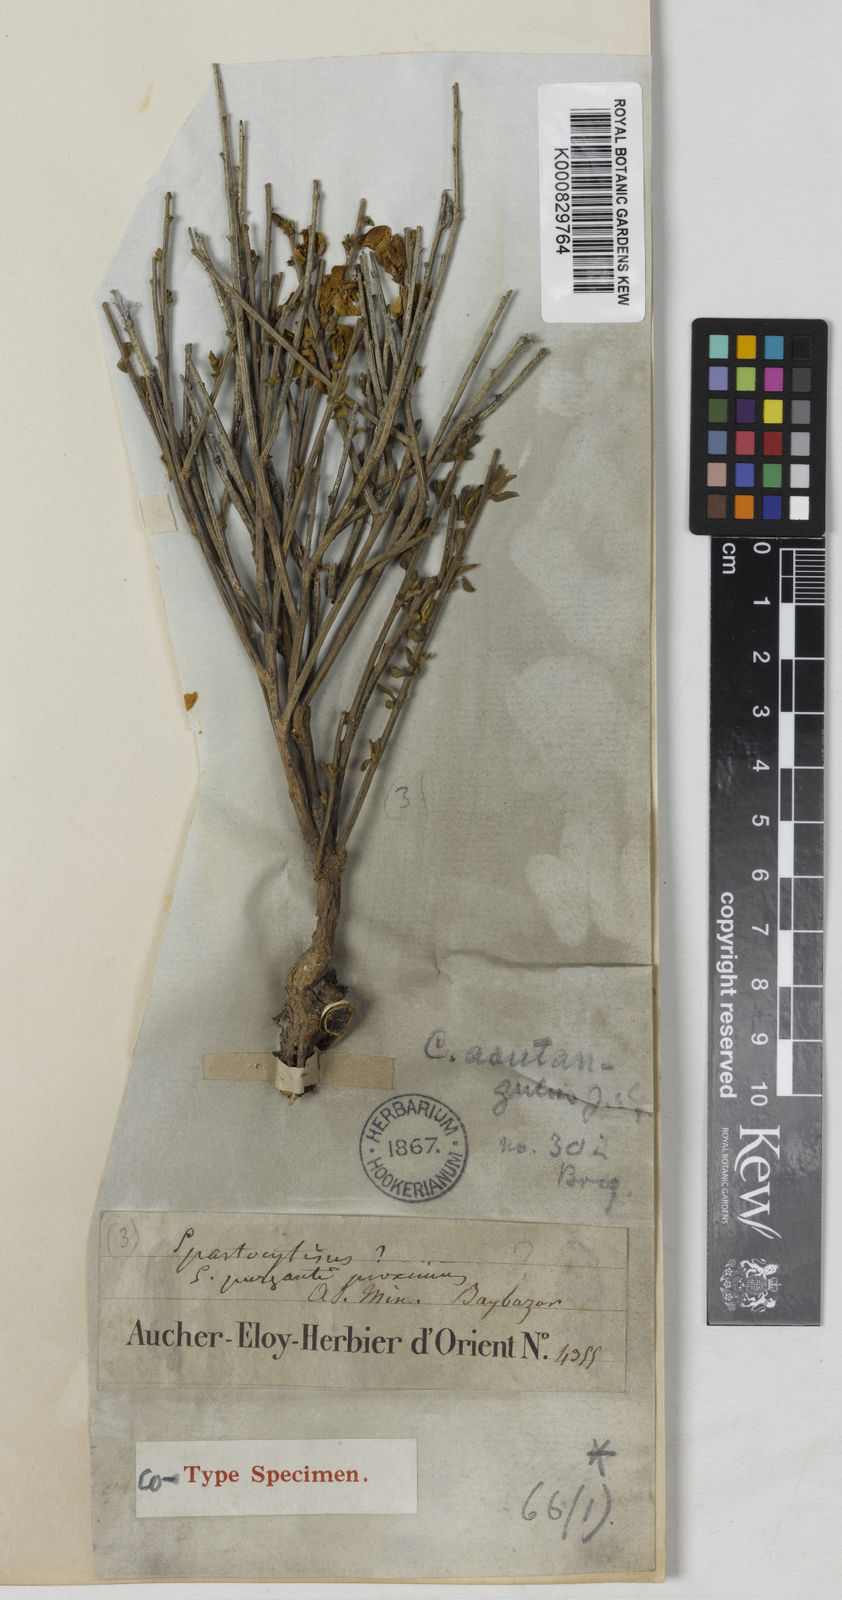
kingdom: Plantae
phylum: Tracheophyta
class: Magnoliopsida
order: Fabales
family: Fabaceae
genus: Cytisus
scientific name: Cytisus acutangulus
